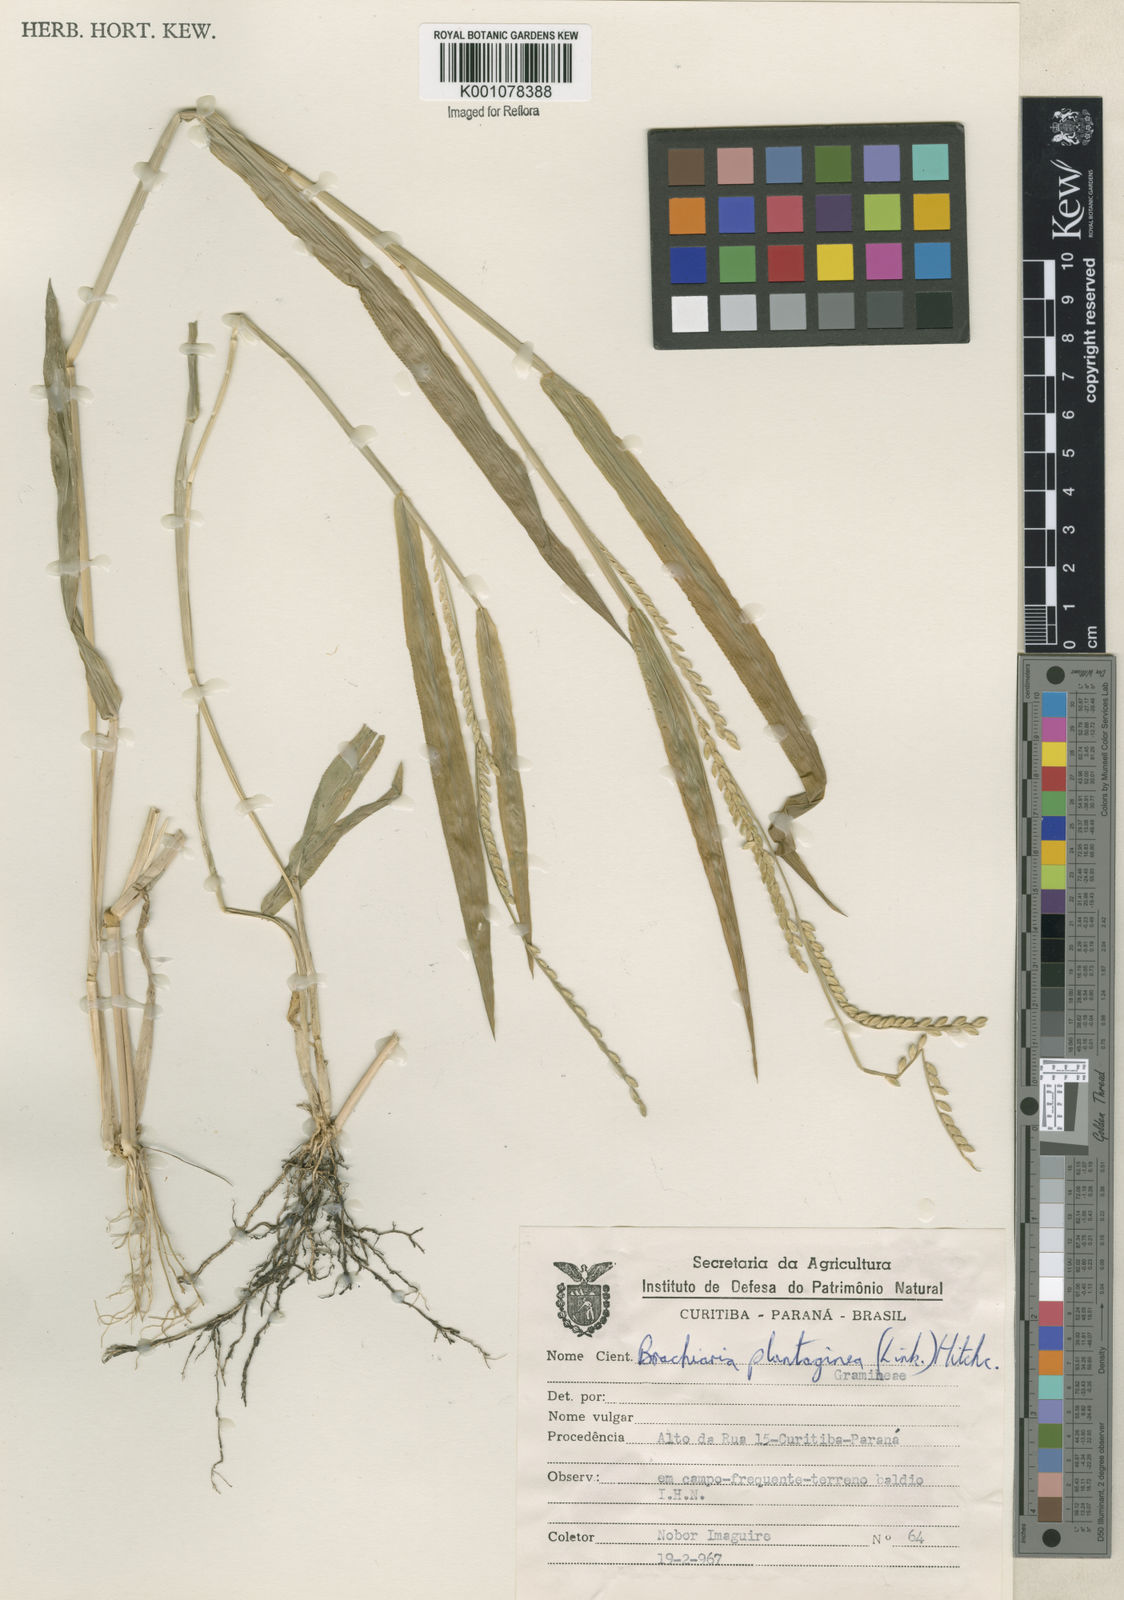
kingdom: Plantae
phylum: Tracheophyta
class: Liliopsida
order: Poales
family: Poaceae
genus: Urochloa
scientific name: Urochloa plantaginea
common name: Plantain signalgrass
